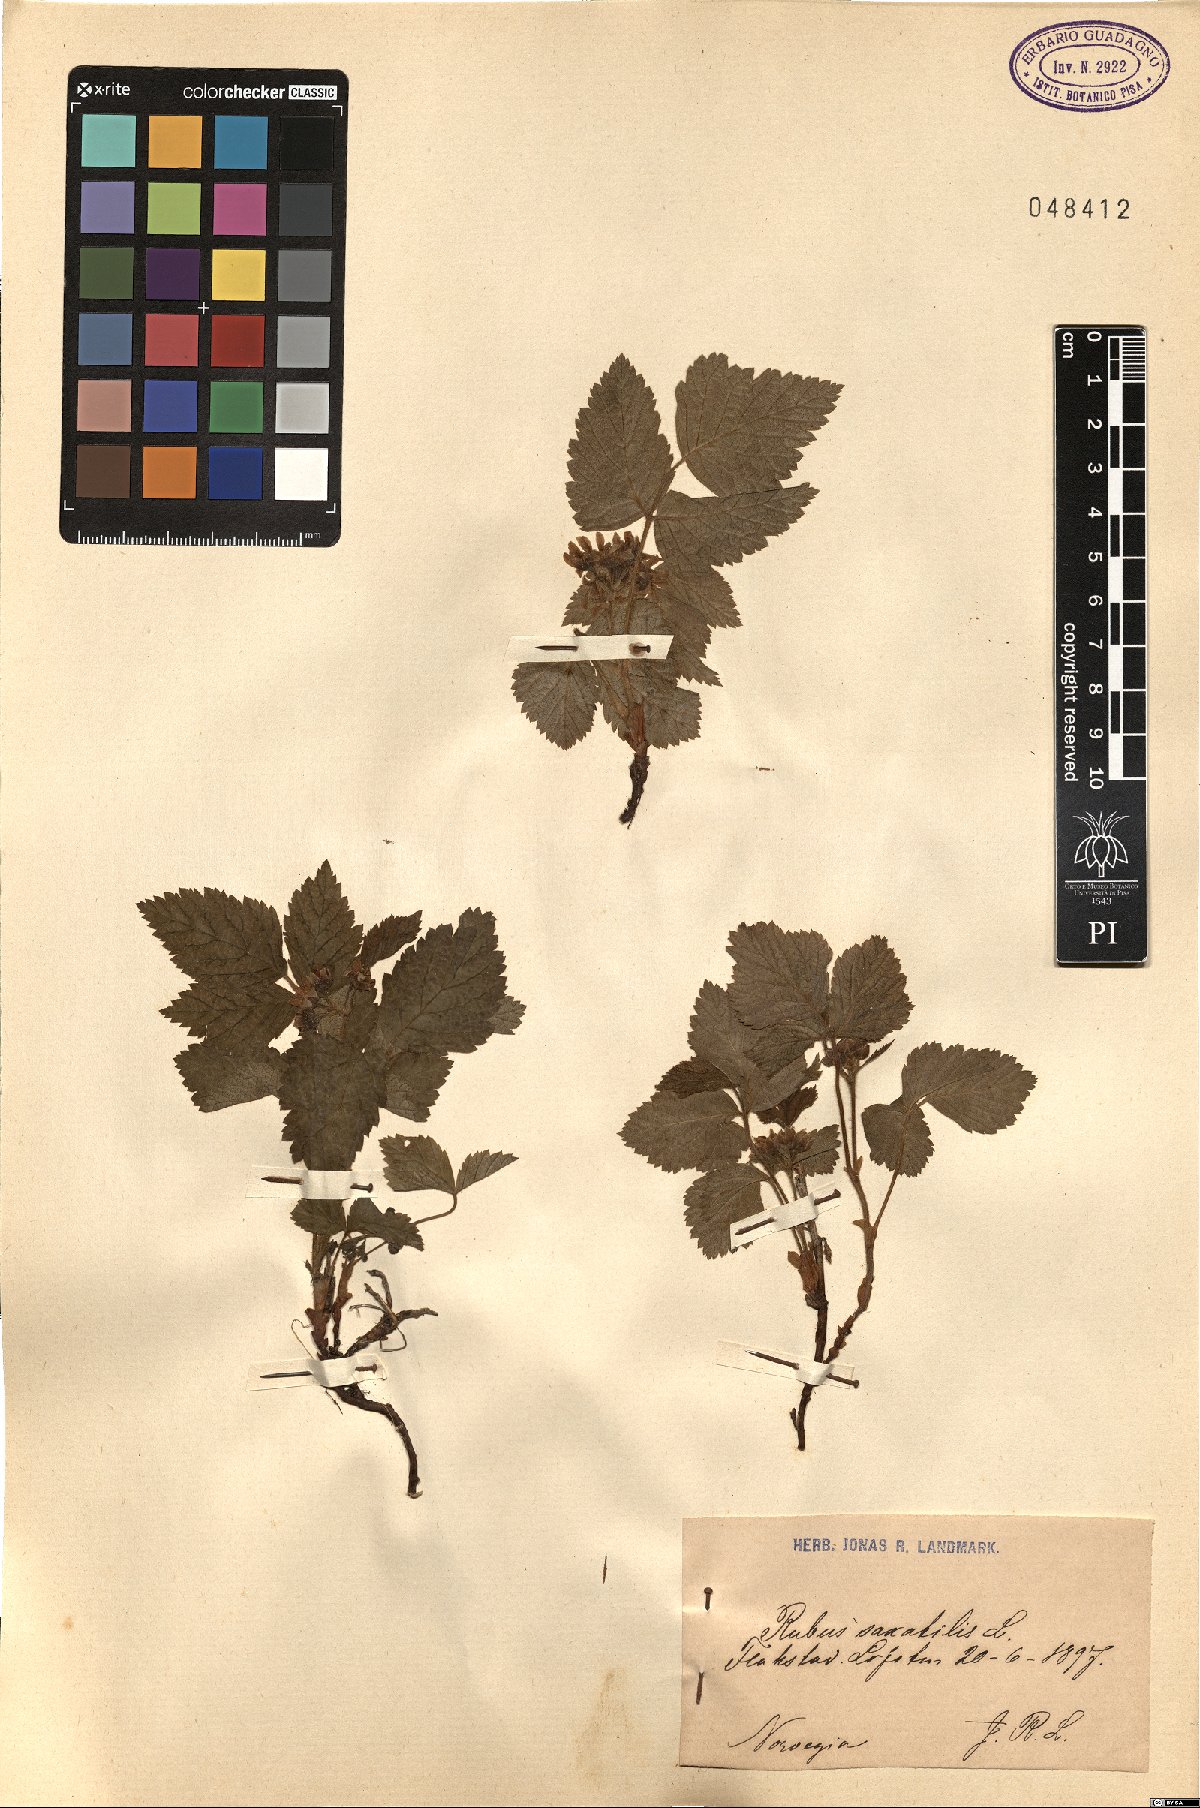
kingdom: Plantae
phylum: Tracheophyta
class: Magnoliopsida
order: Rosales
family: Rosaceae
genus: Rubus
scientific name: Rubus saxatilis
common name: Stone bramble
